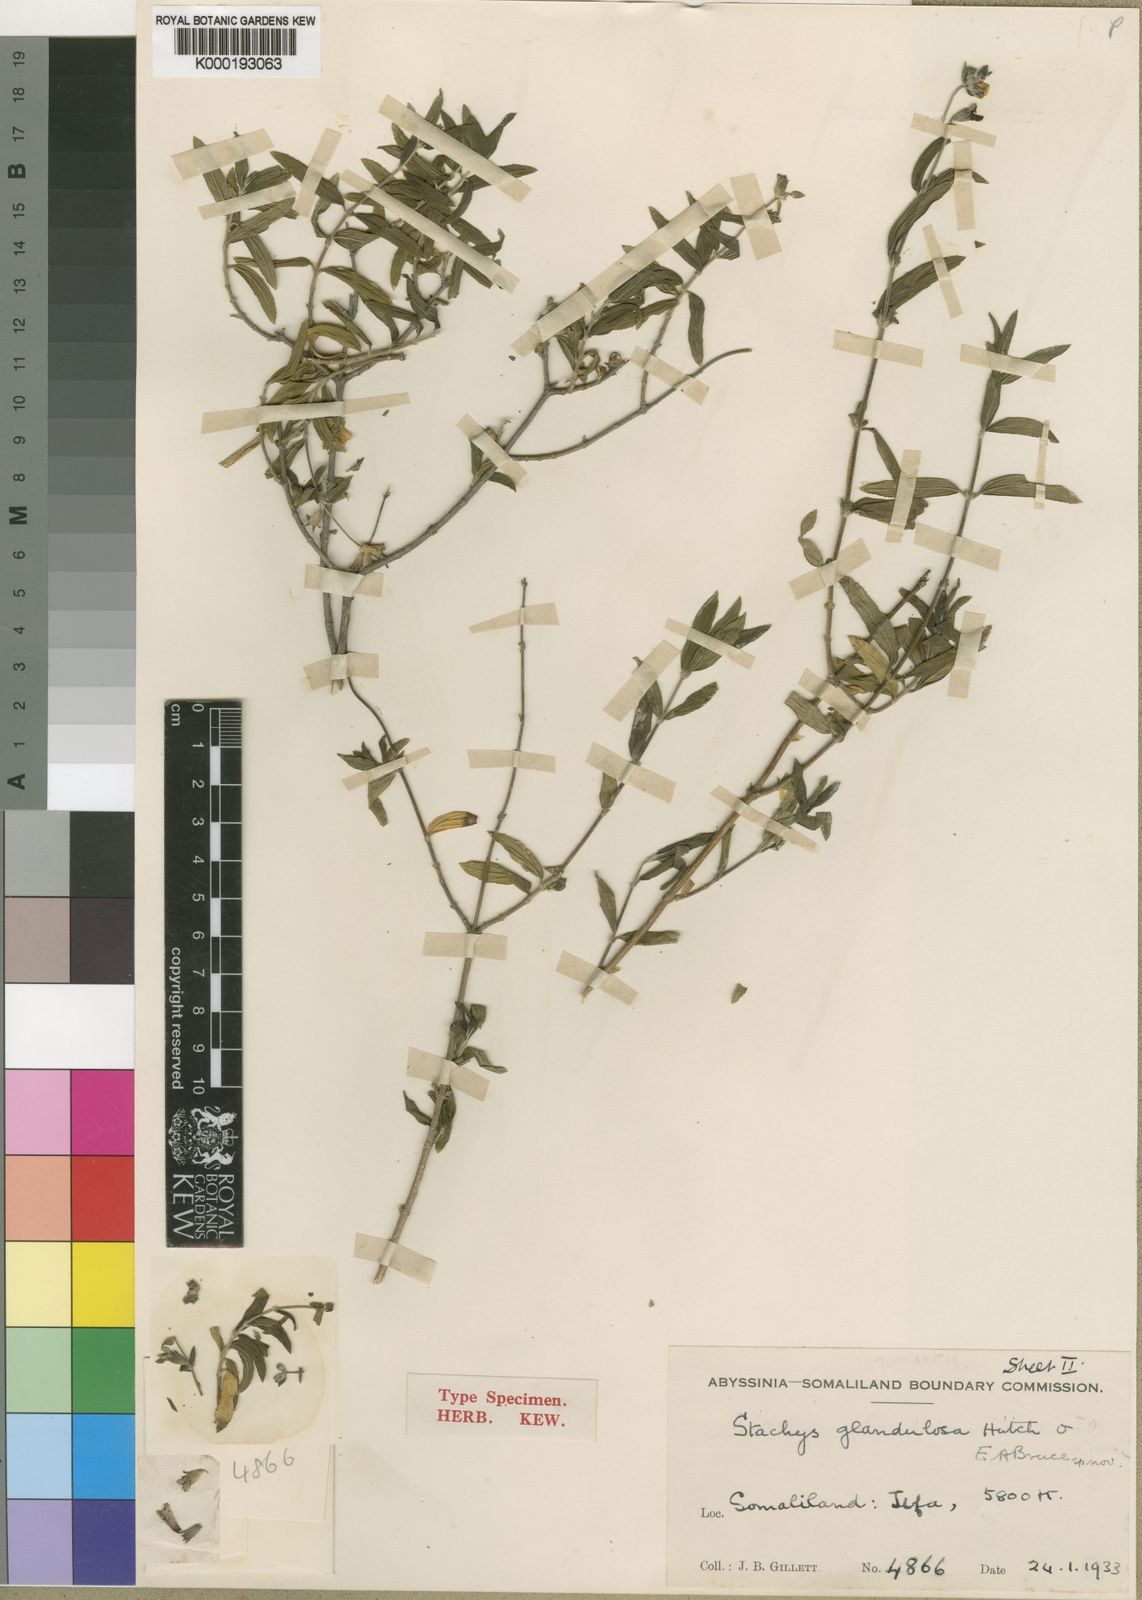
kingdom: Plantae
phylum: Tracheophyta
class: Magnoliopsida
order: Lamiales
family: Lamiaceae
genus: Stachys
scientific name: Stachys glandulosa
